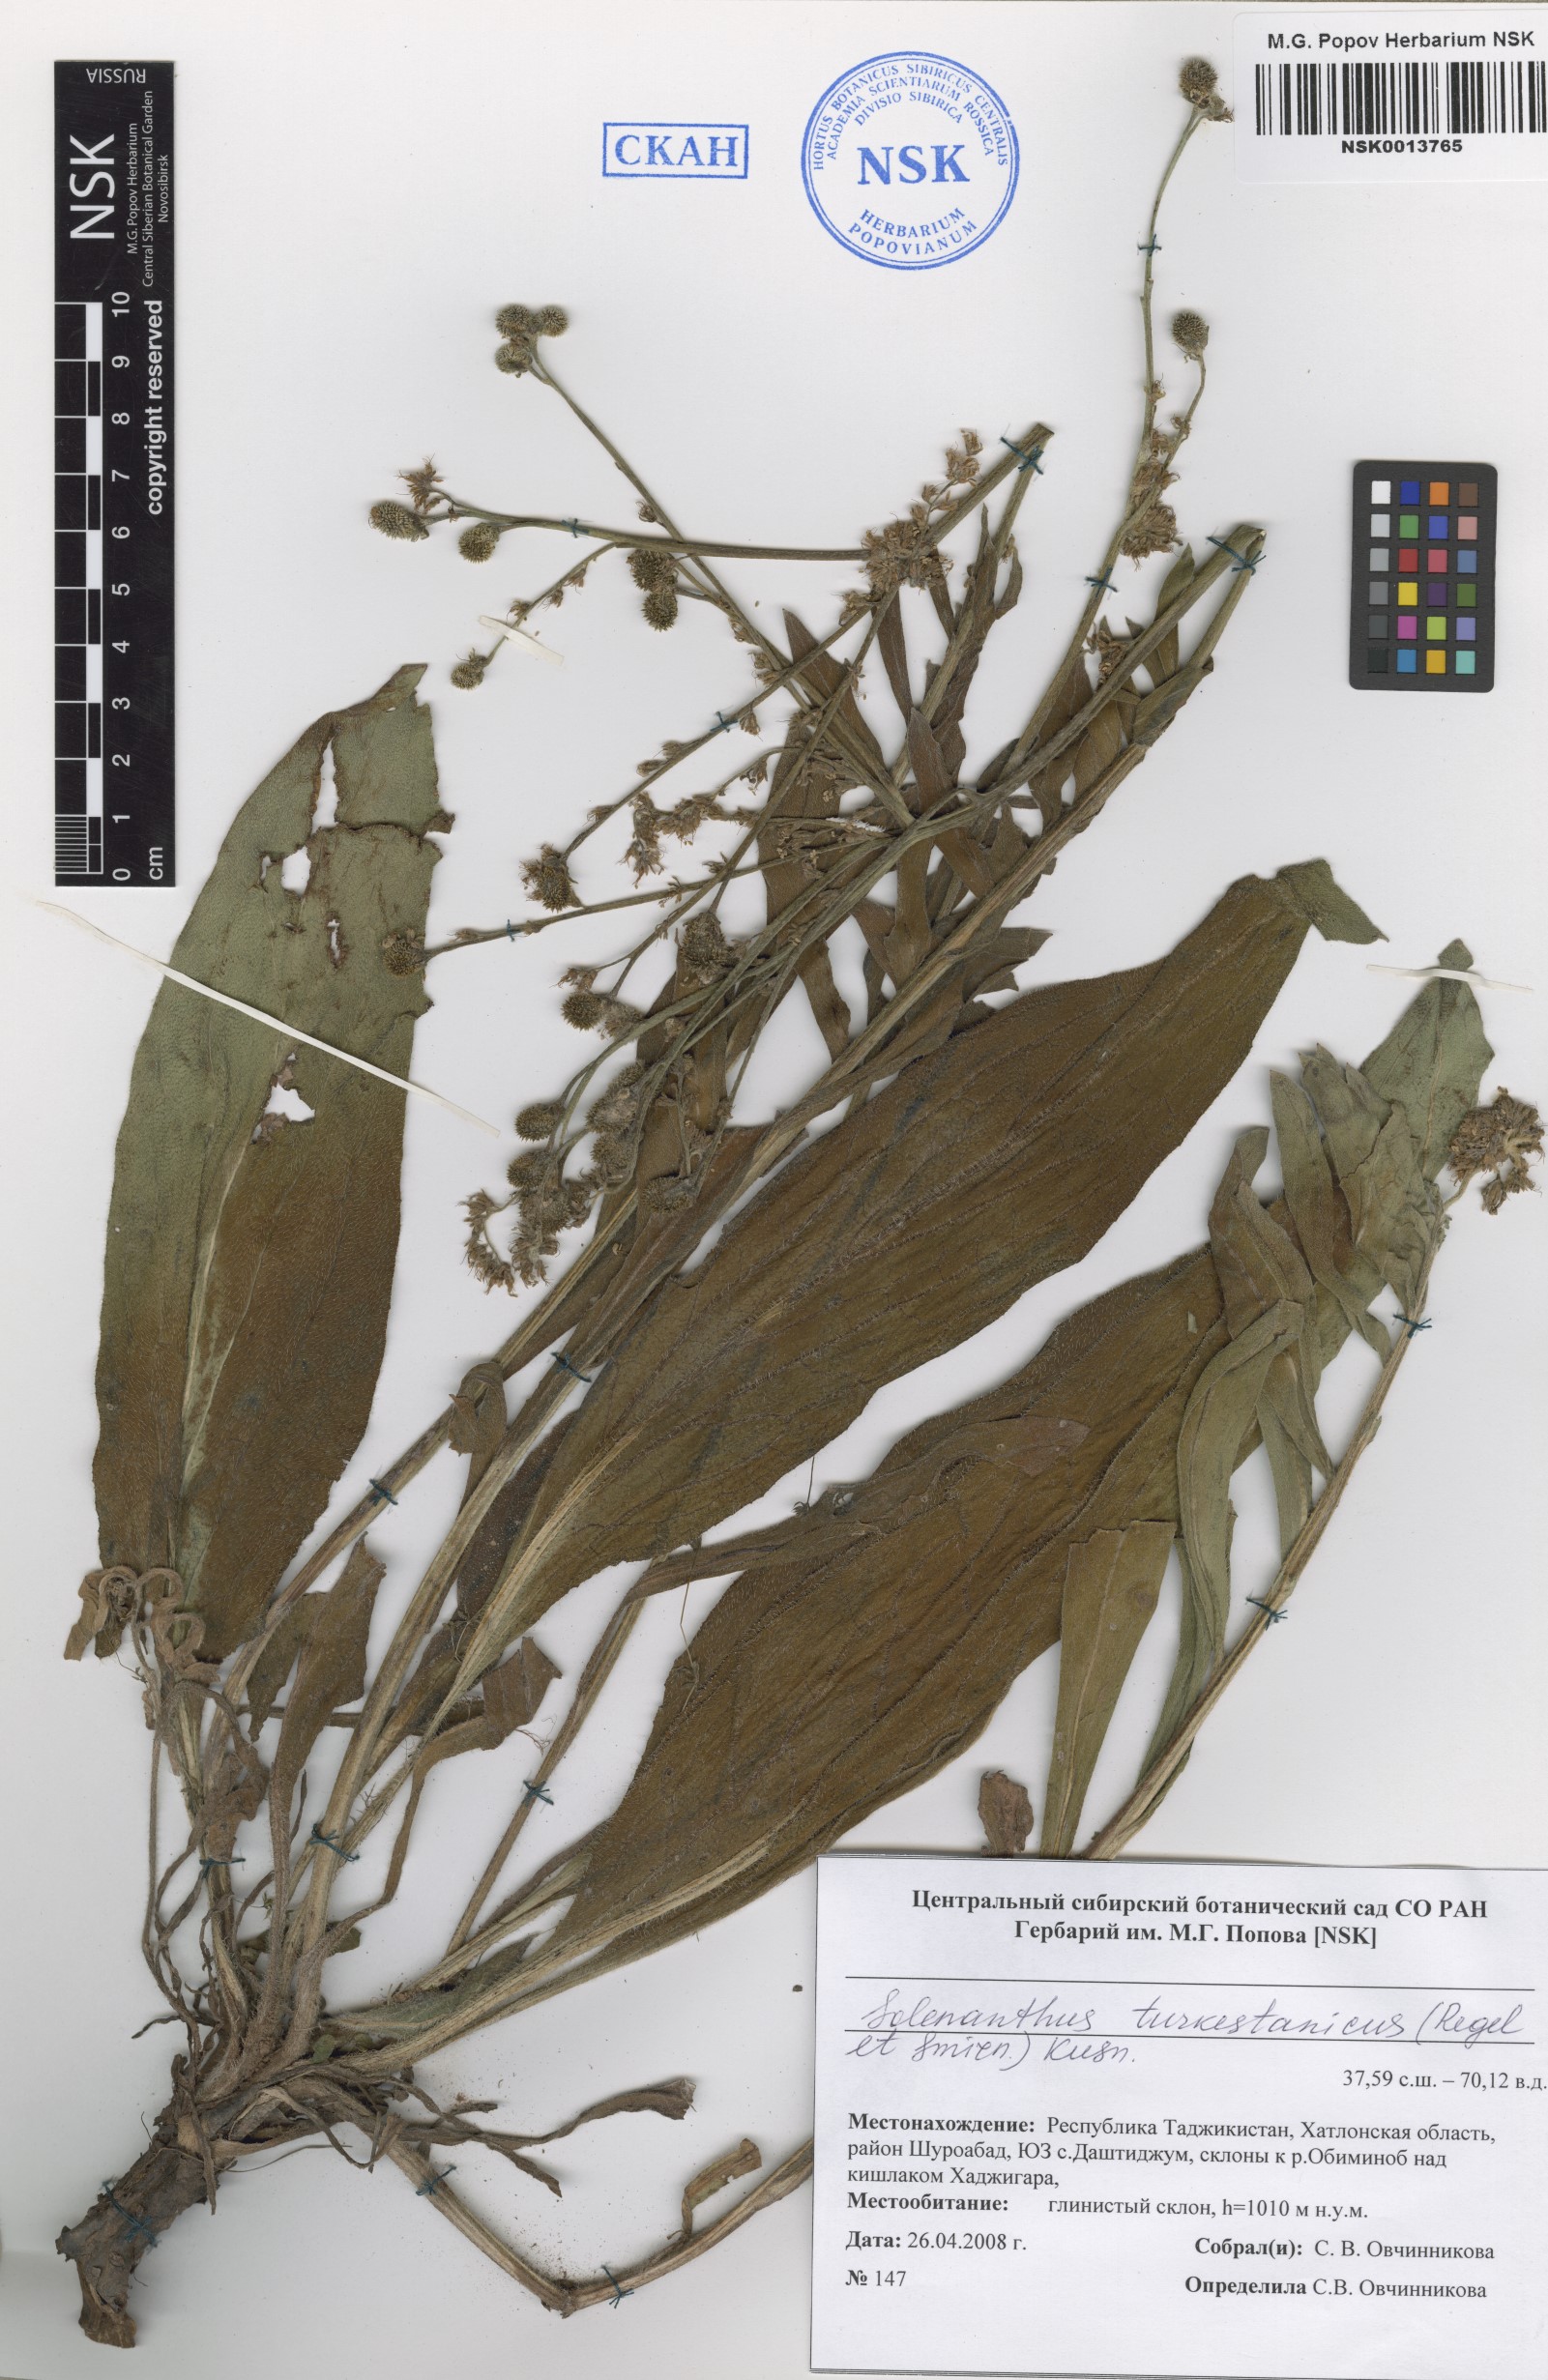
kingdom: Plantae
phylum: Tracheophyta
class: Magnoliopsida
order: Boraginales
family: Boraginaceae
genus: Solenanthus
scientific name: Solenanthus turkestanicus
